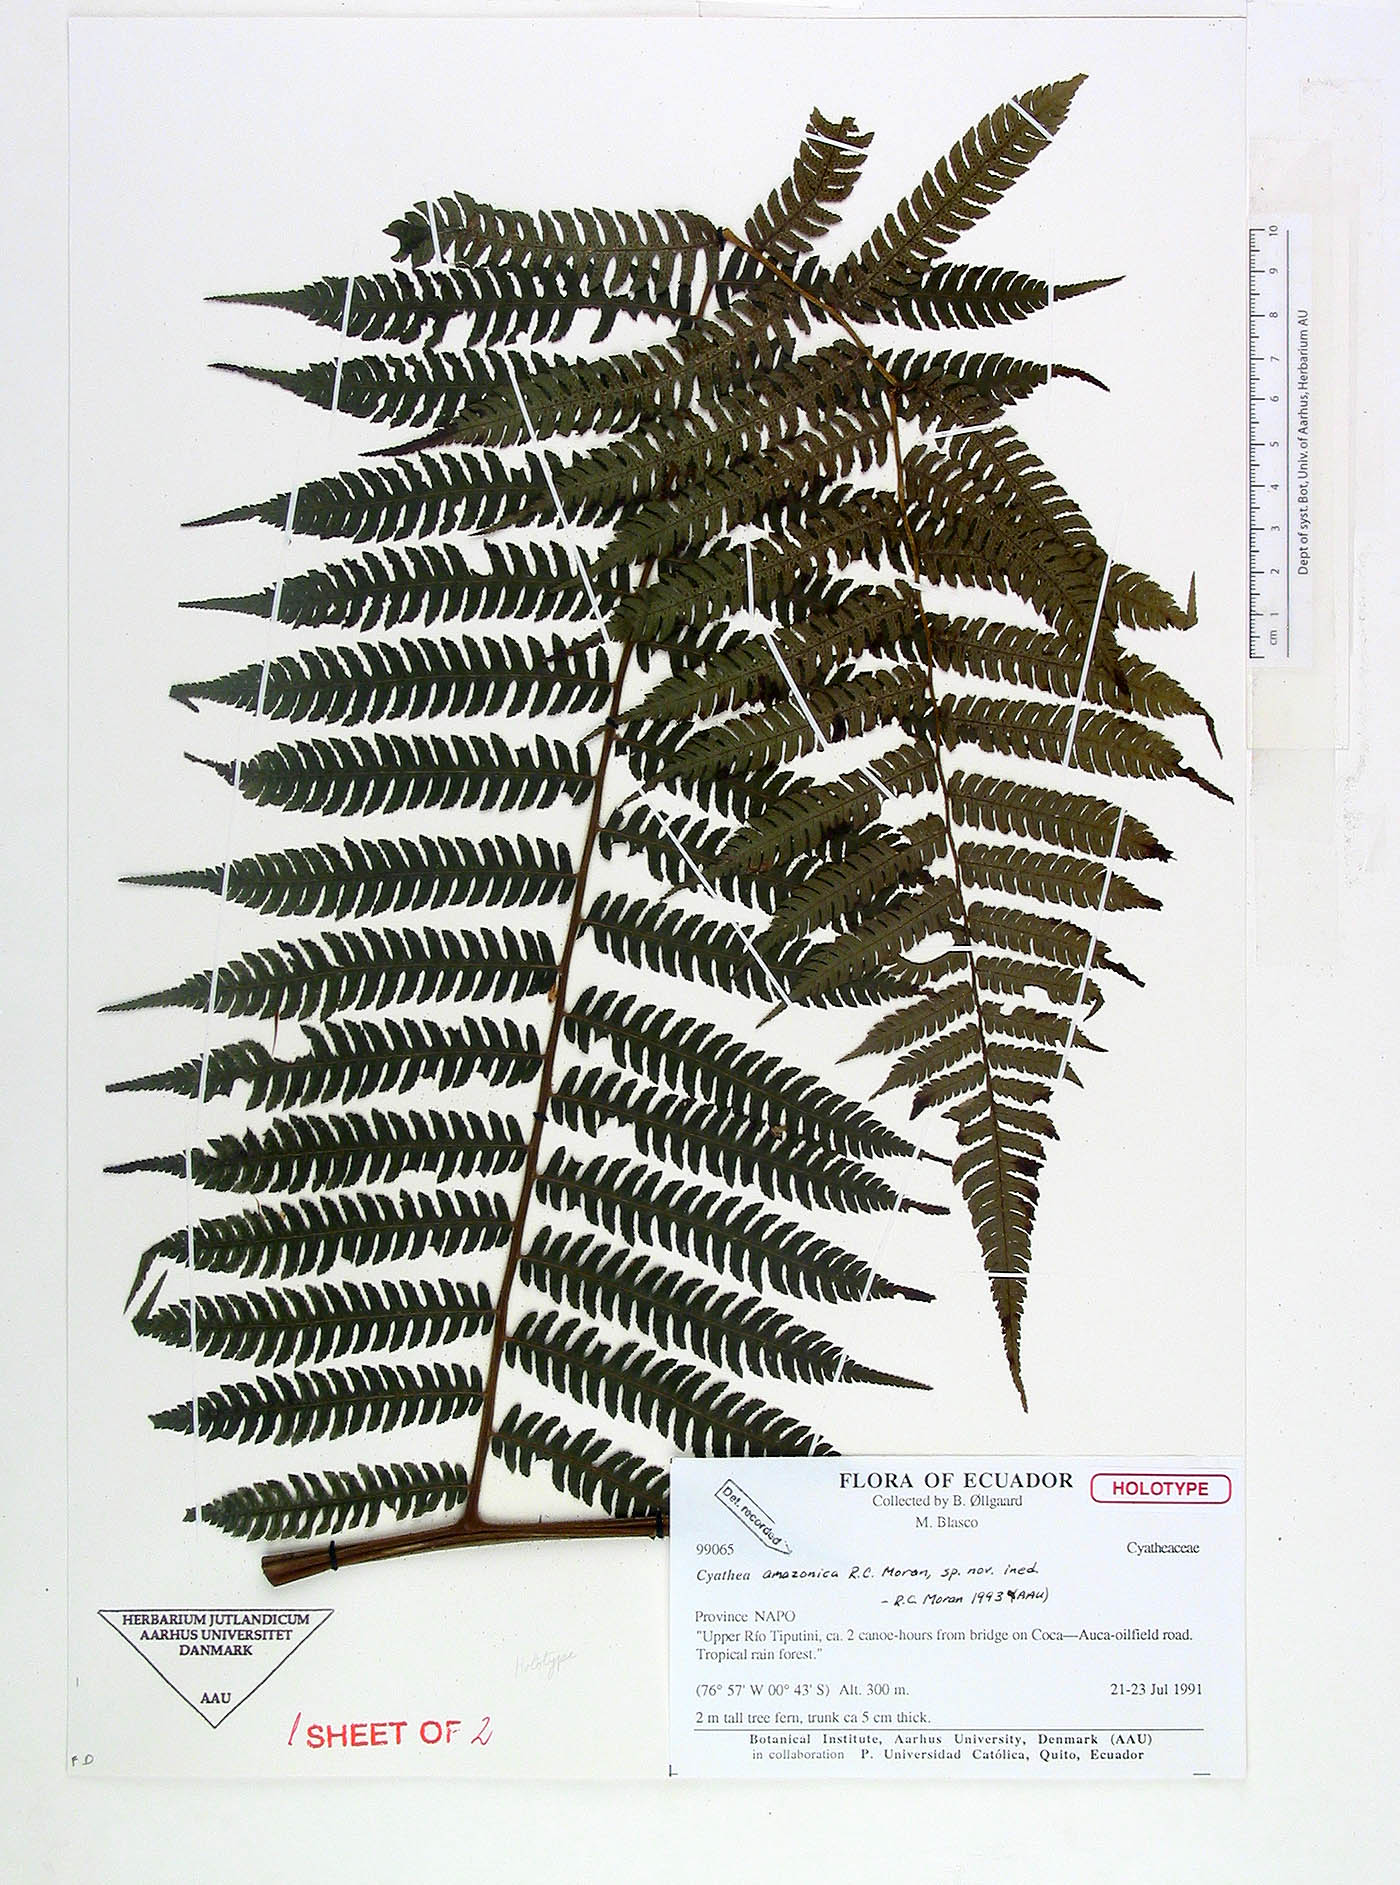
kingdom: Plantae
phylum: Tracheophyta
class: Polypodiopsida
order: Cyatheales
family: Cyatheaceae
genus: Cyathea
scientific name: Cyathea leucolepismata
